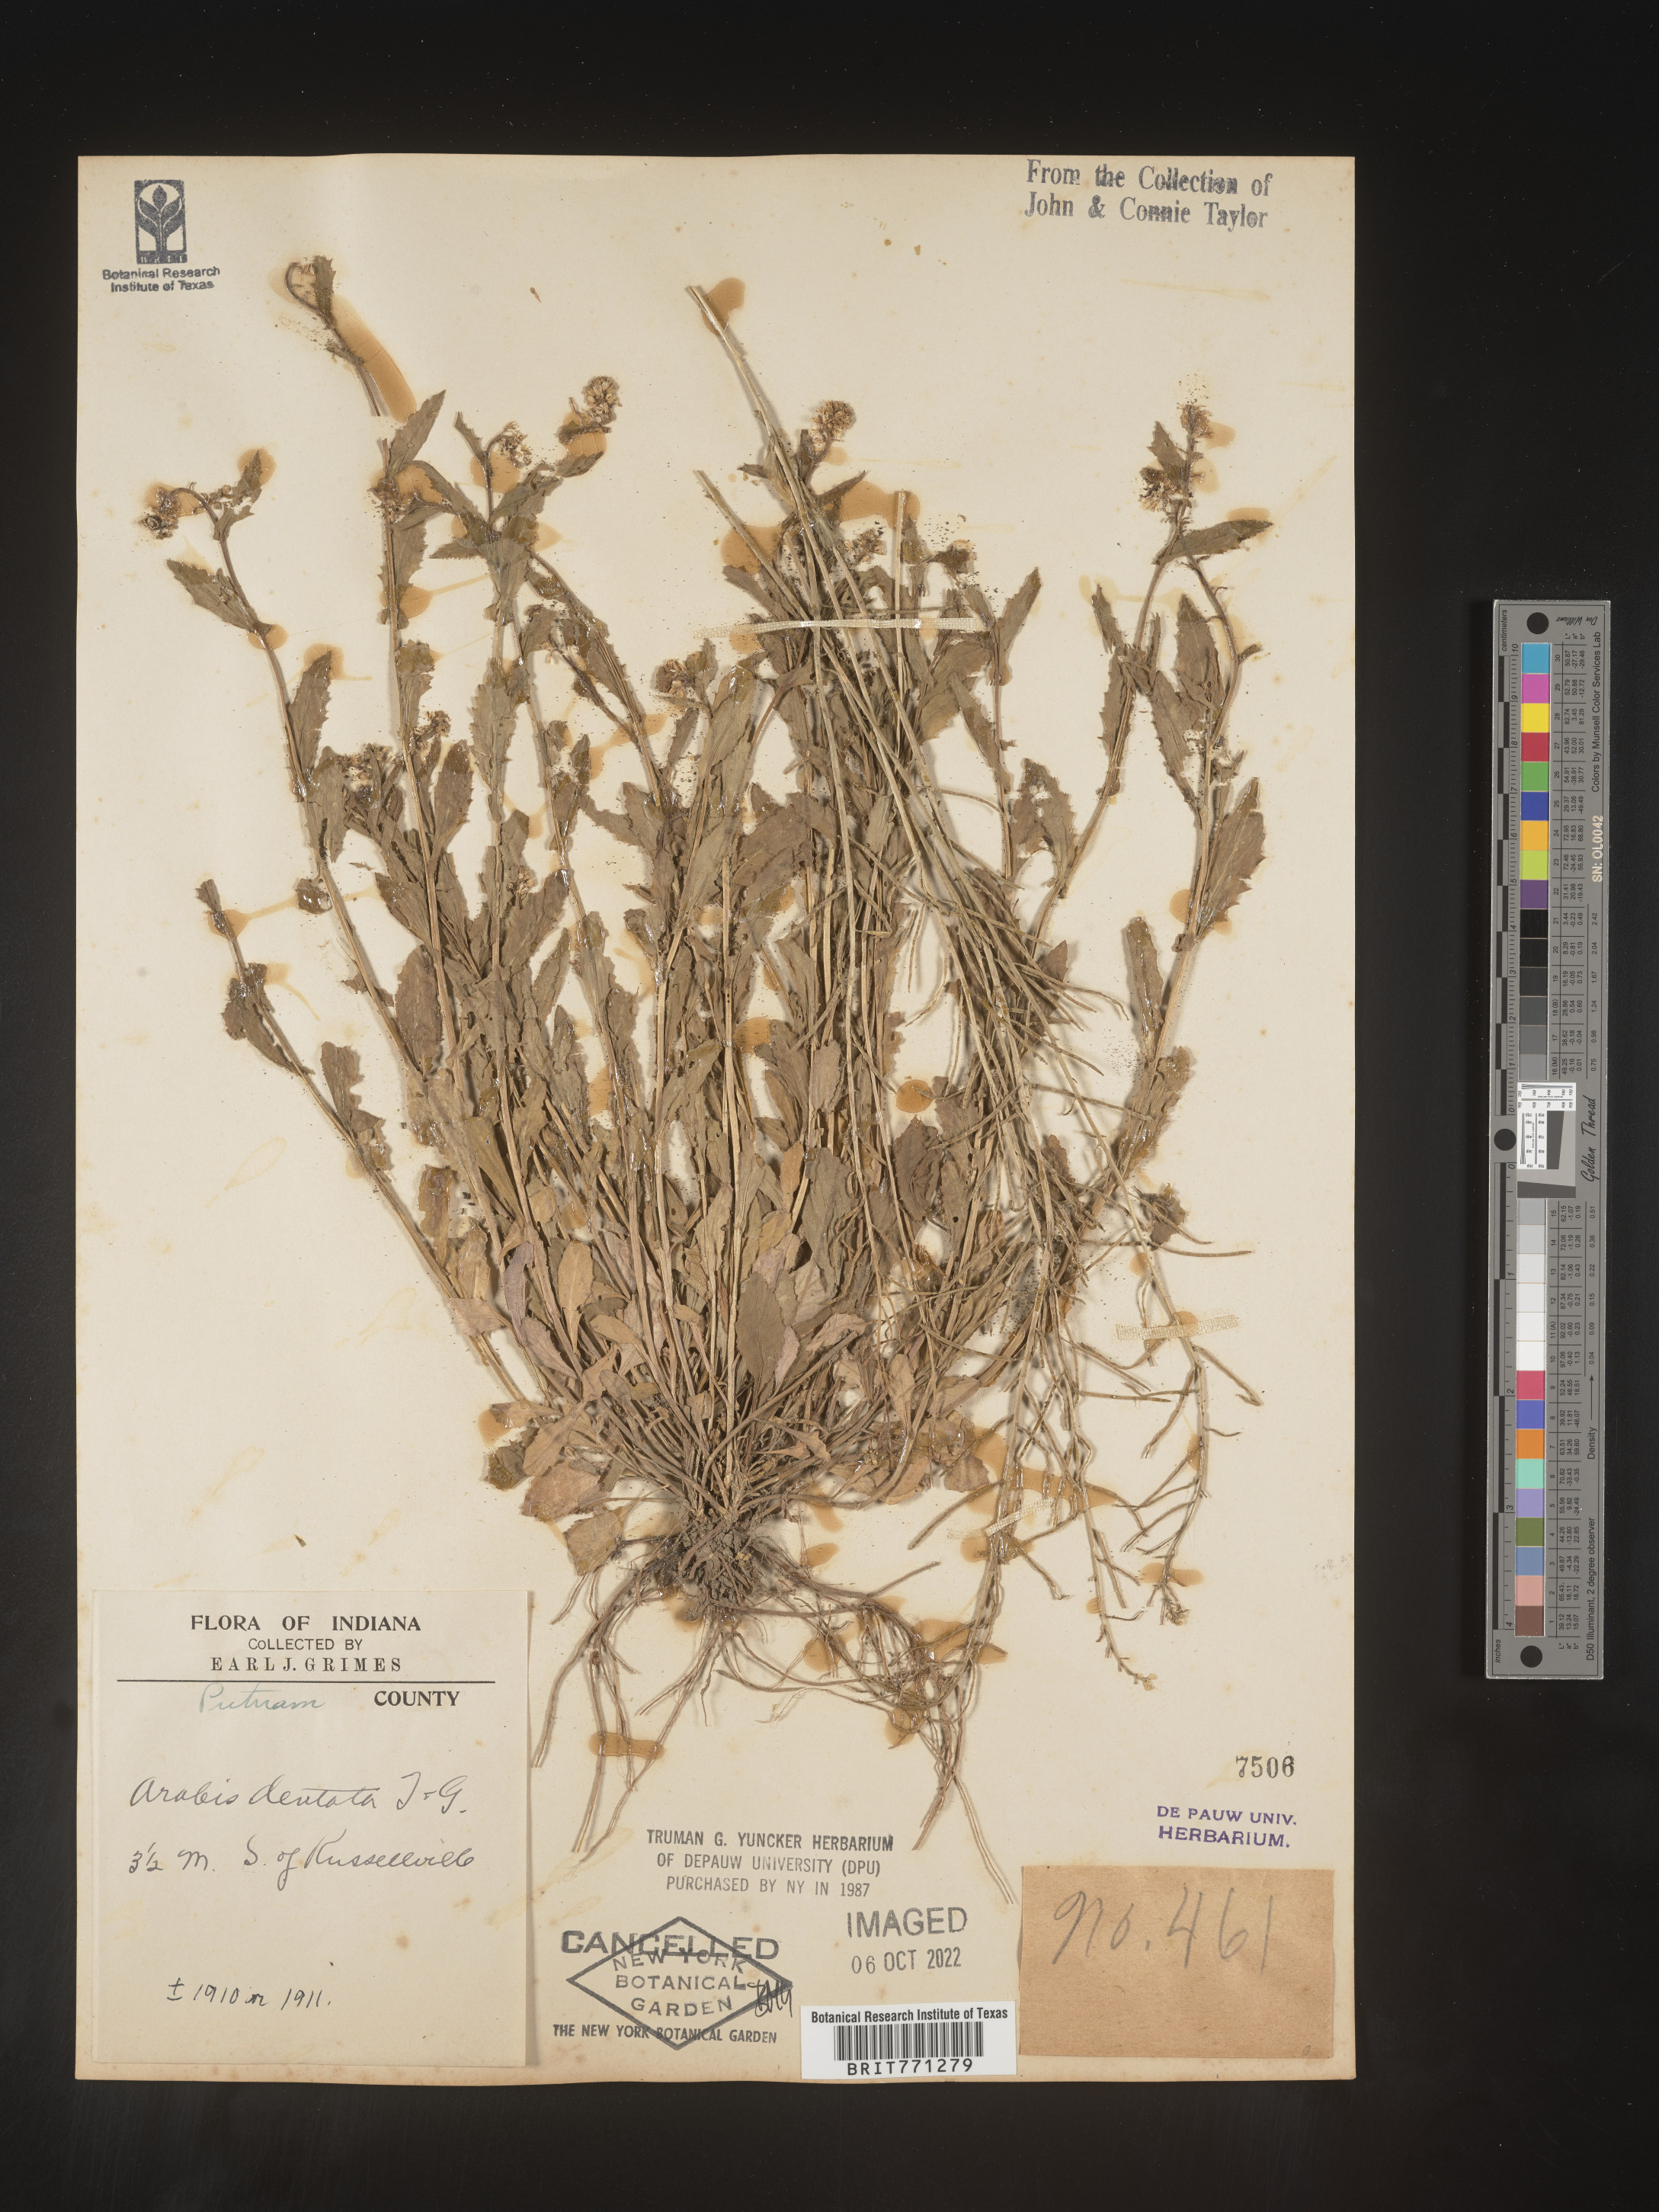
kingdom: Plantae
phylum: Tracheophyta
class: Magnoliopsida
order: Brassicales
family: Brassicaceae
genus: Arabis
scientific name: Arabis
